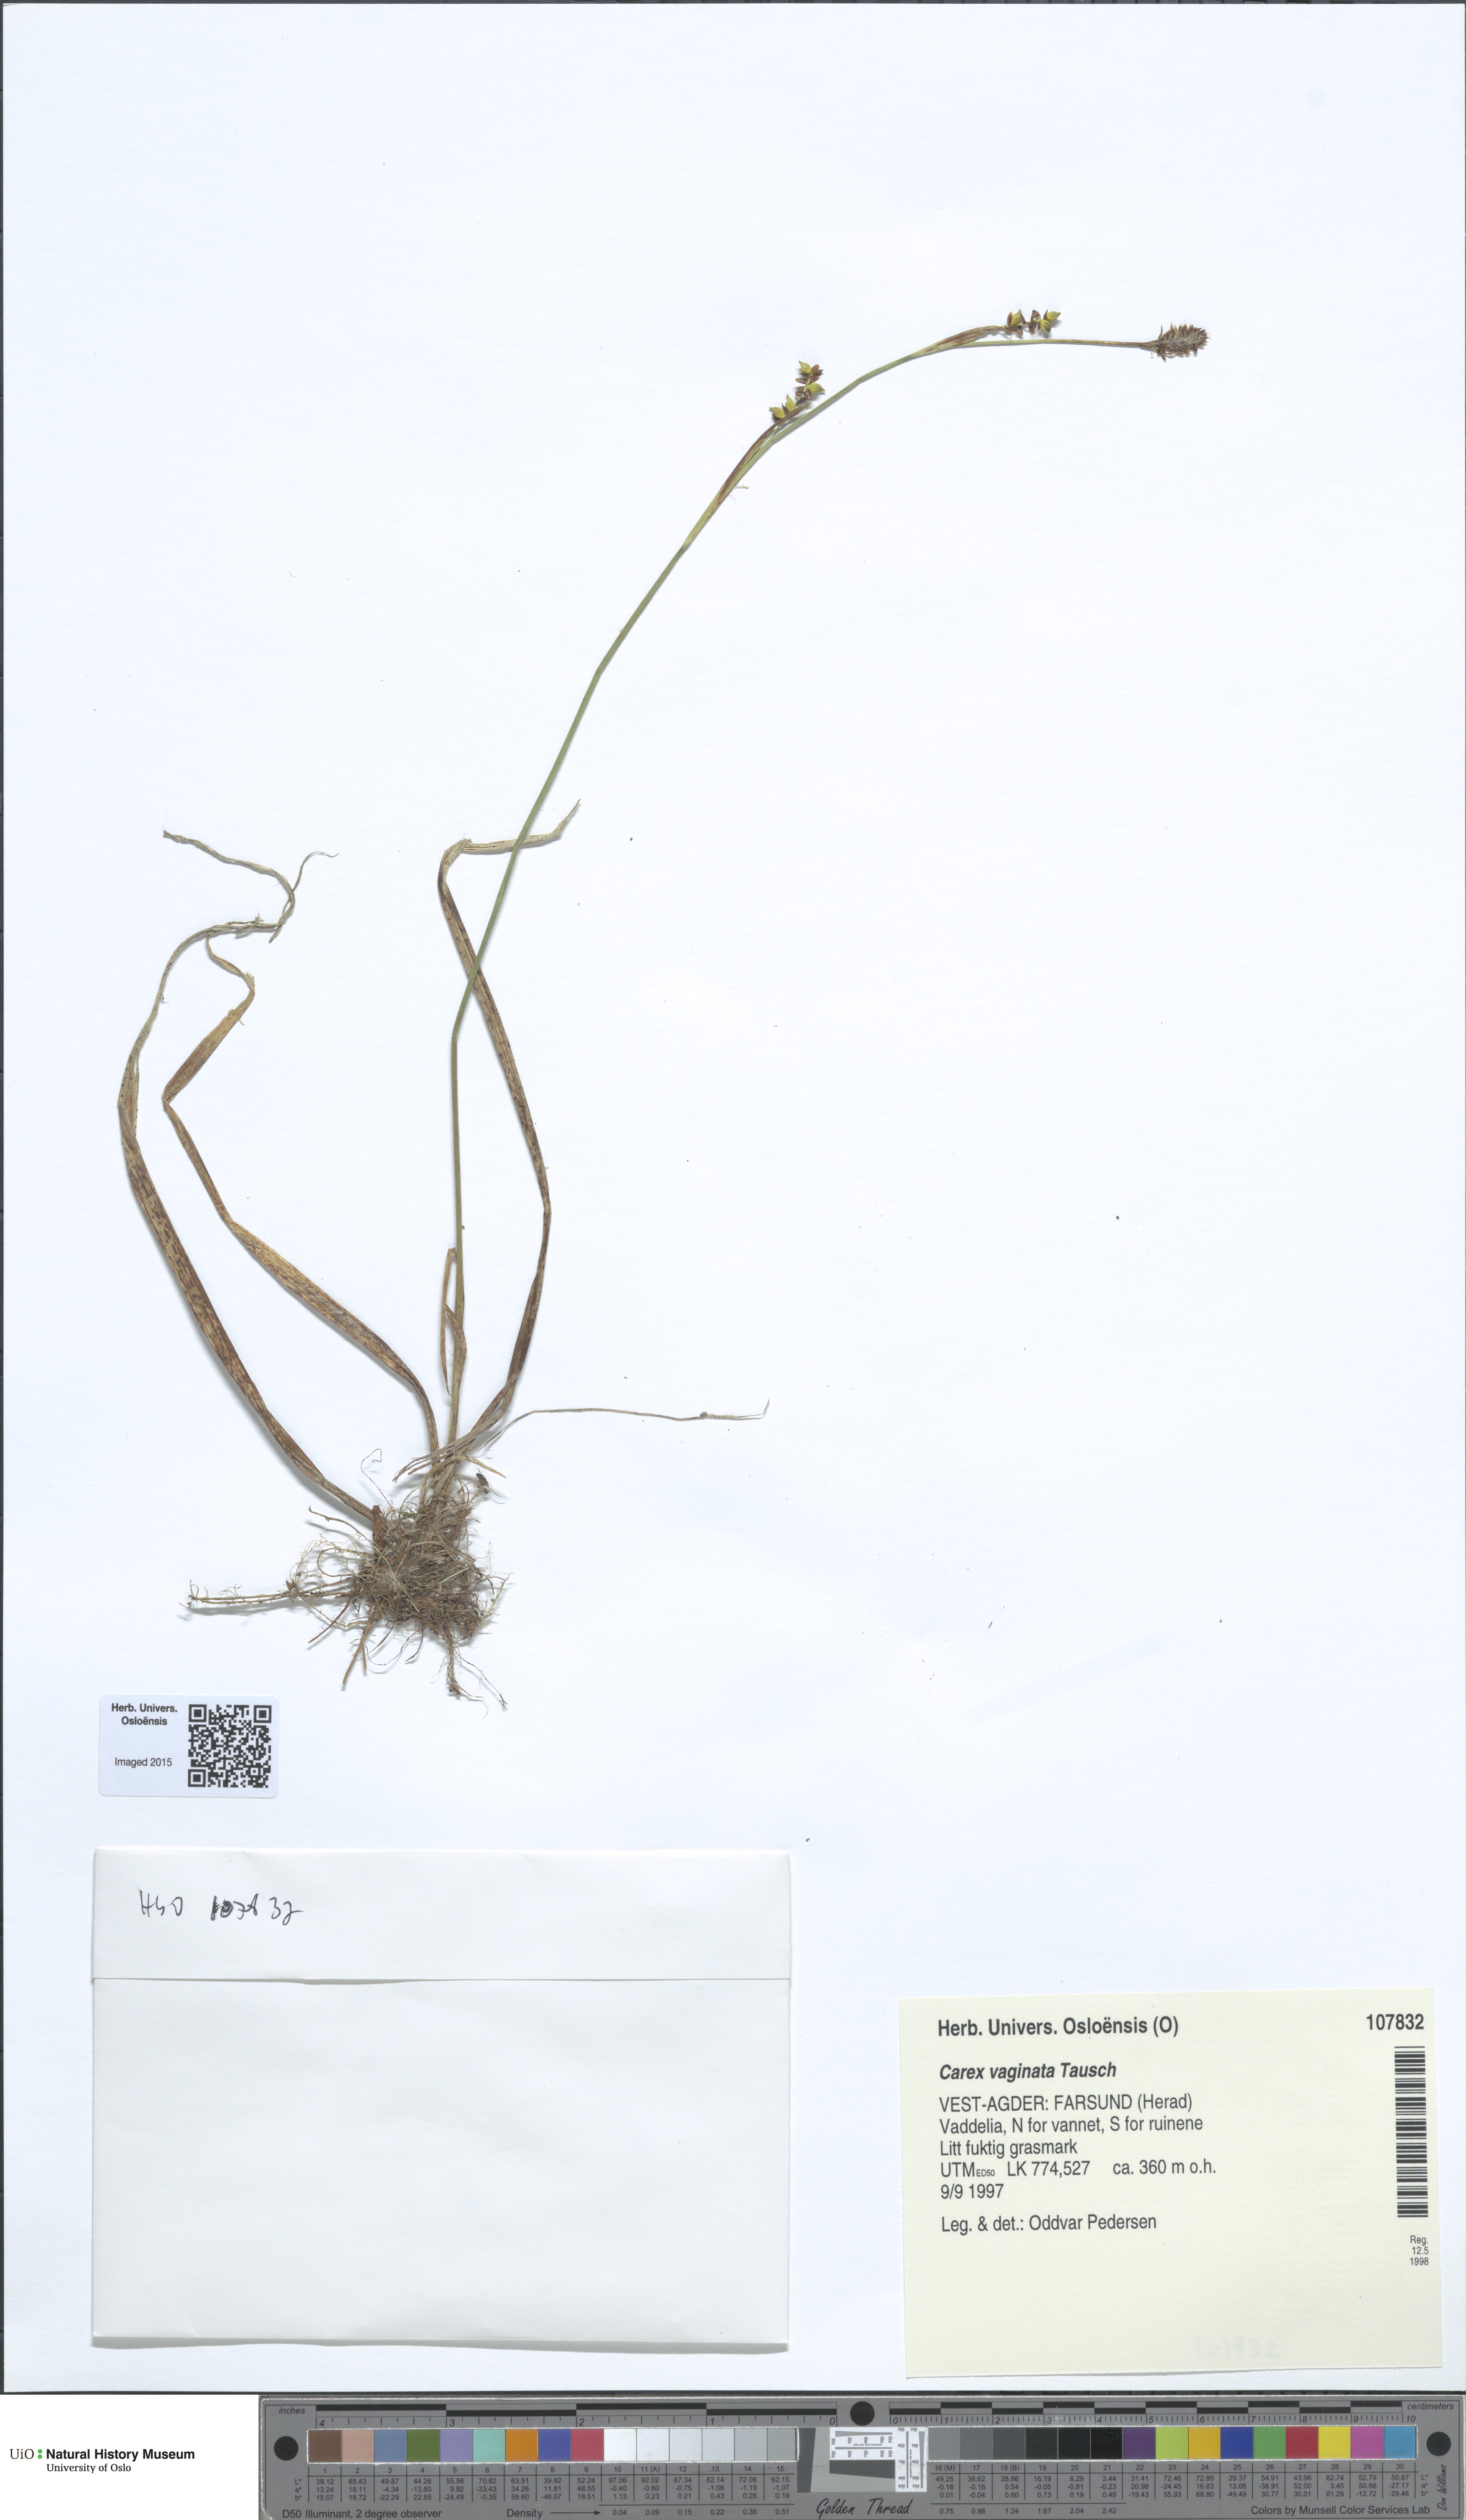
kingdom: Plantae
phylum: Tracheophyta
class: Liliopsida
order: Poales
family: Cyperaceae
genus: Carex
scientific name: Carex vaginata
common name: Sheathed sedge
